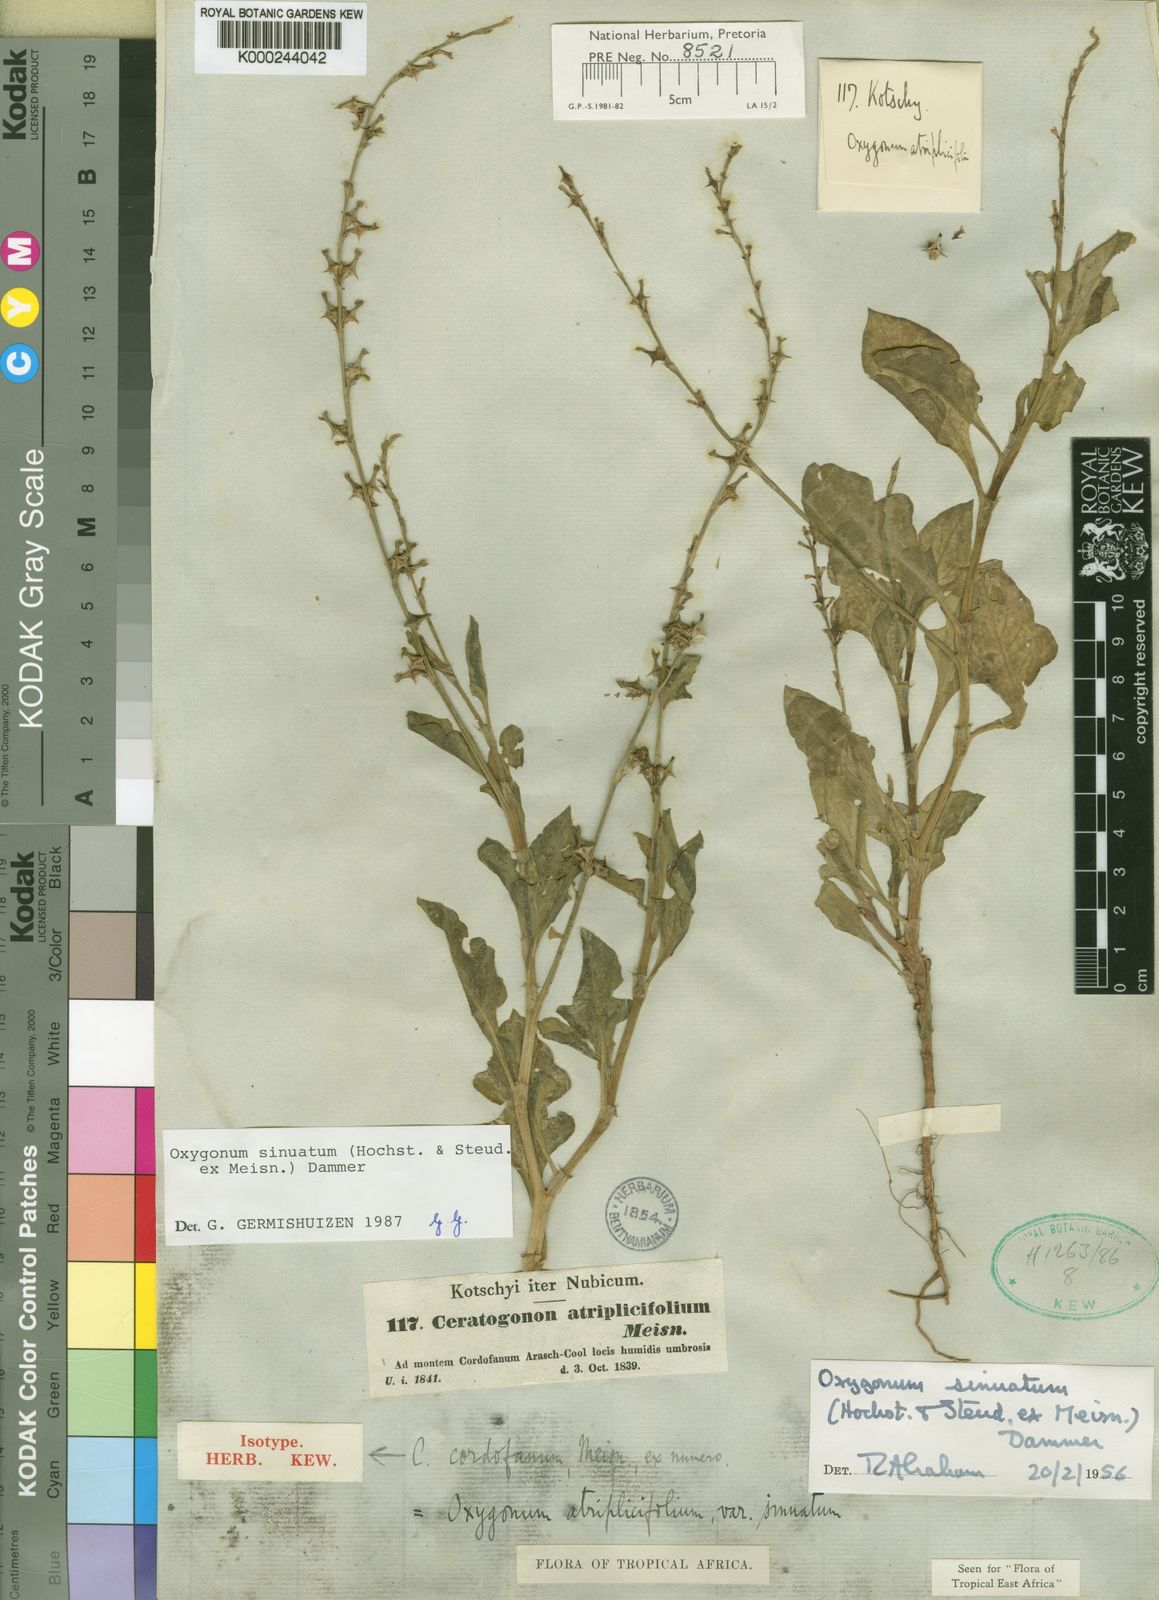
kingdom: Plantae
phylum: Tracheophyta
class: Magnoliopsida
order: Caryophyllales
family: Polygonaceae
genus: Oxygonum
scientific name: Oxygonum sinuatum
